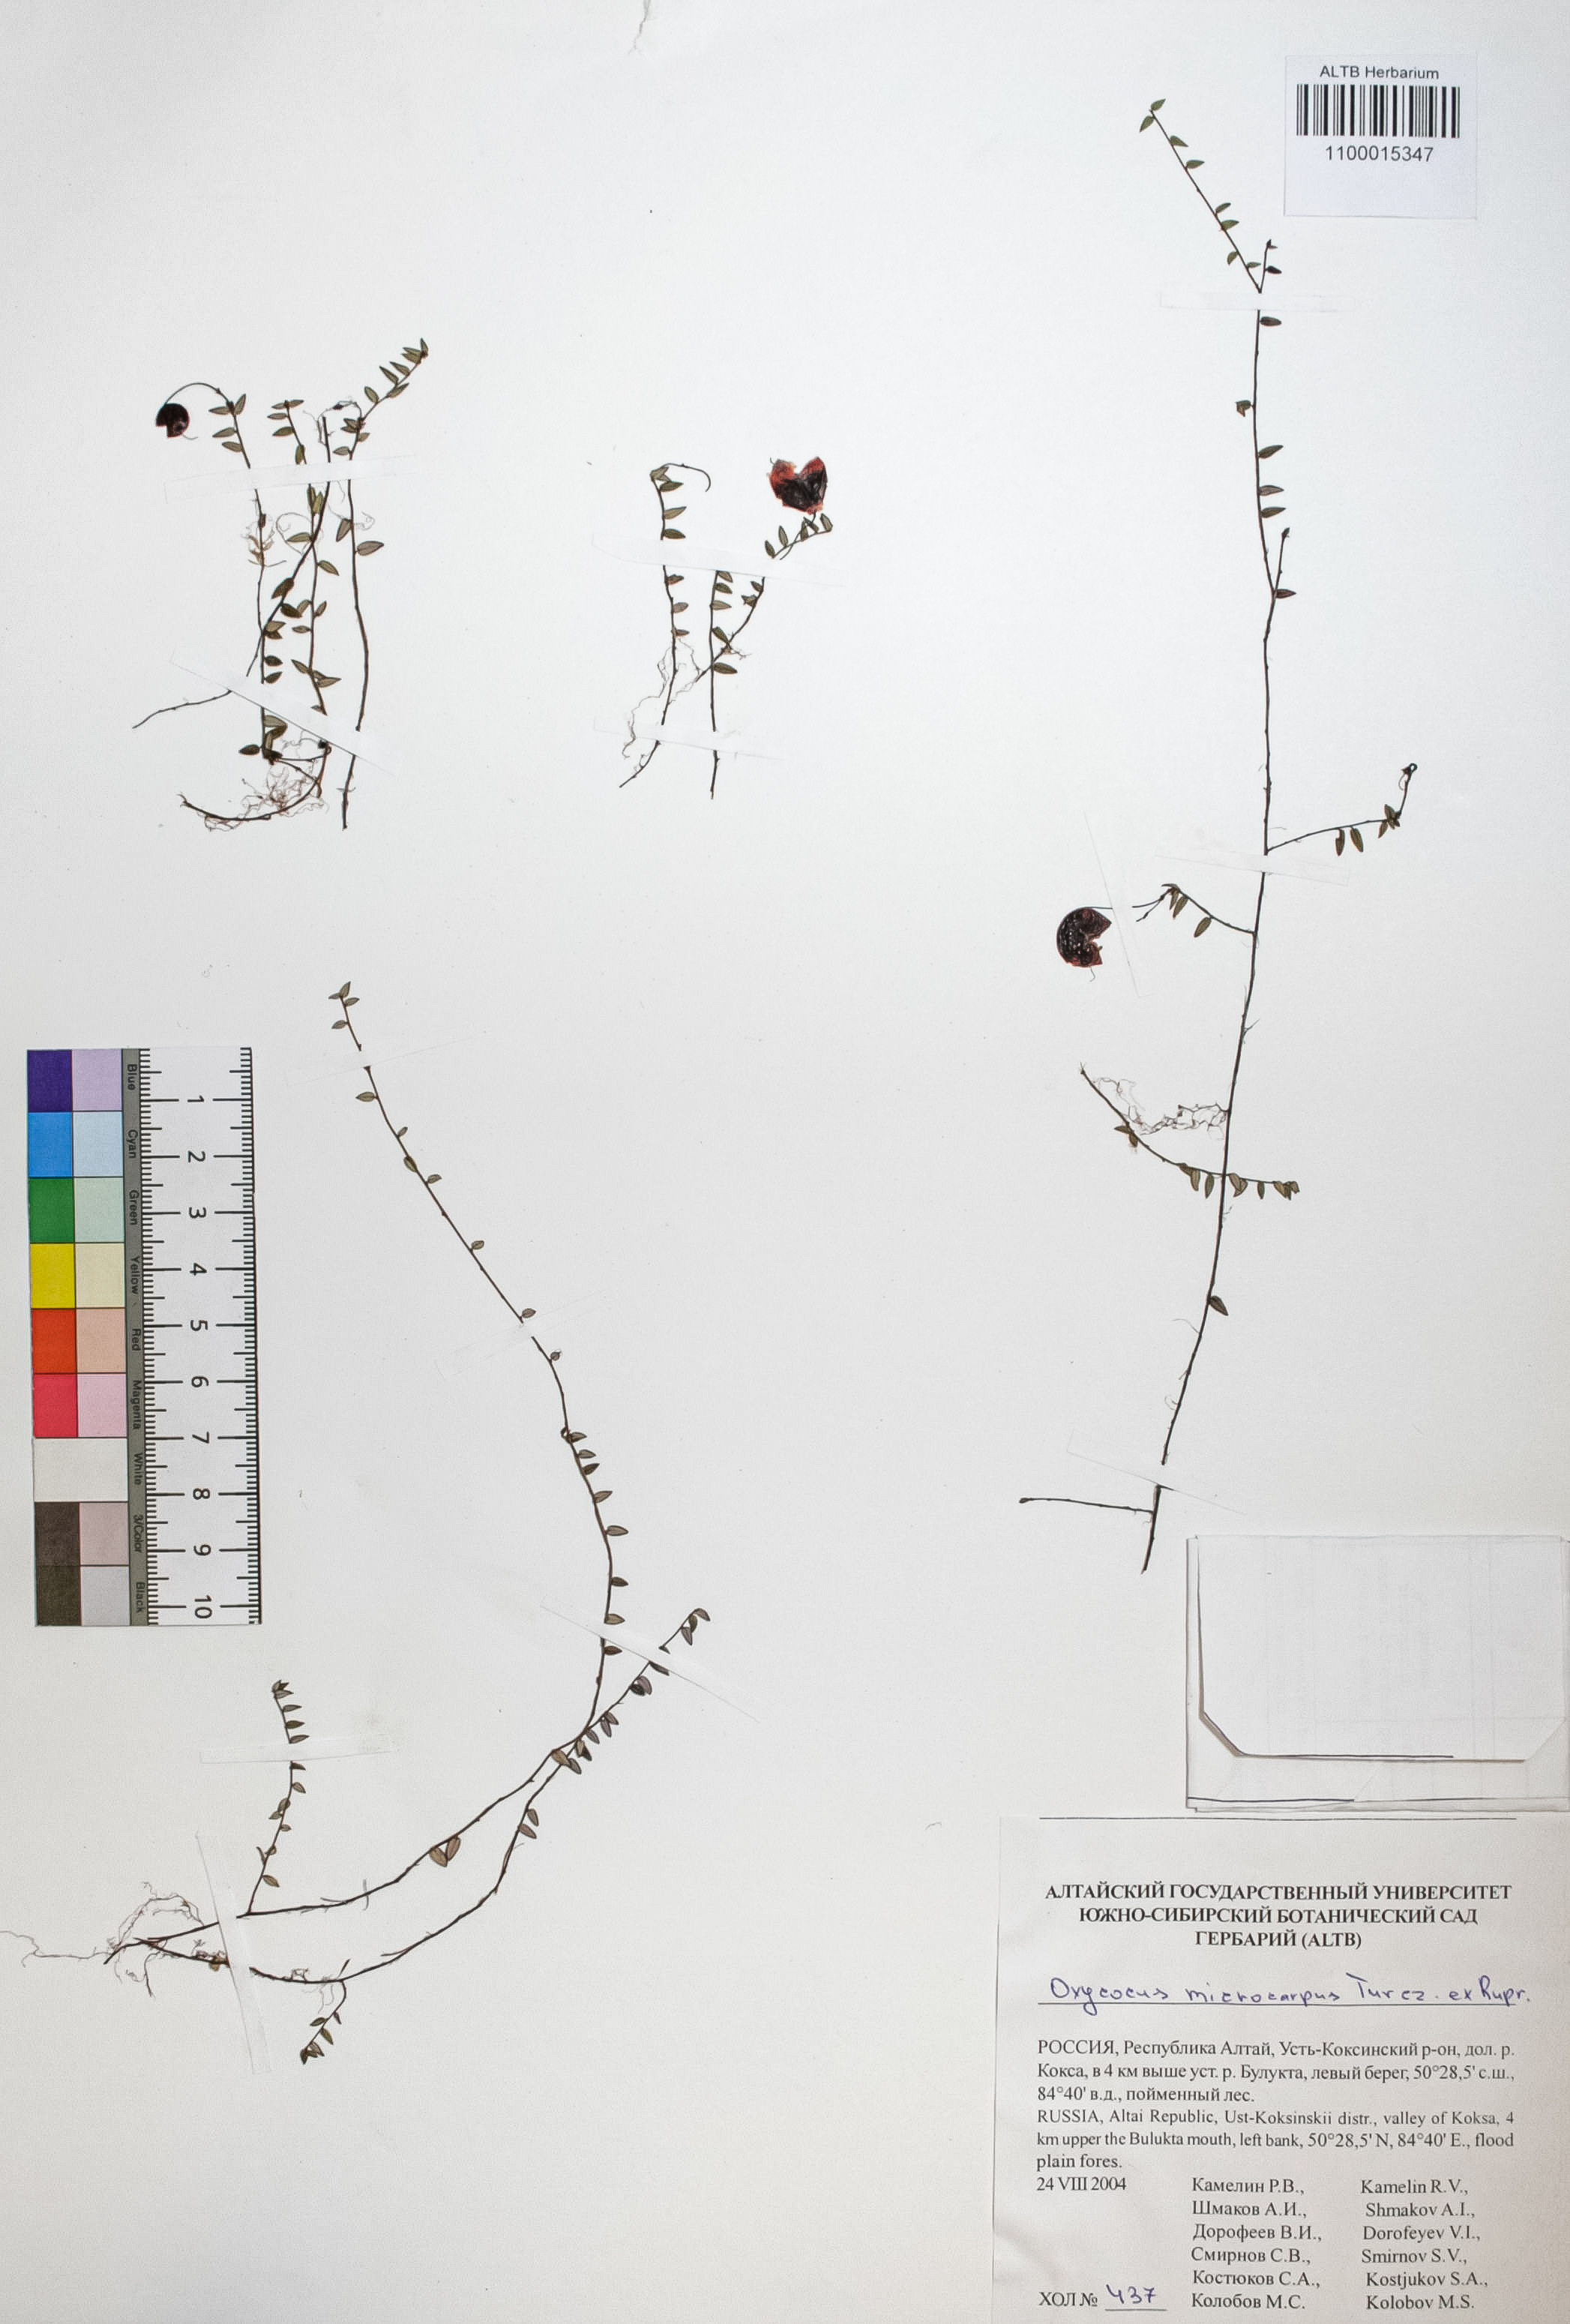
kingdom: Plantae
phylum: Tracheophyta
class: Magnoliopsida
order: Ericales
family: Ericaceae
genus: Vaccinium
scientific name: Vaccinium microcarpum
